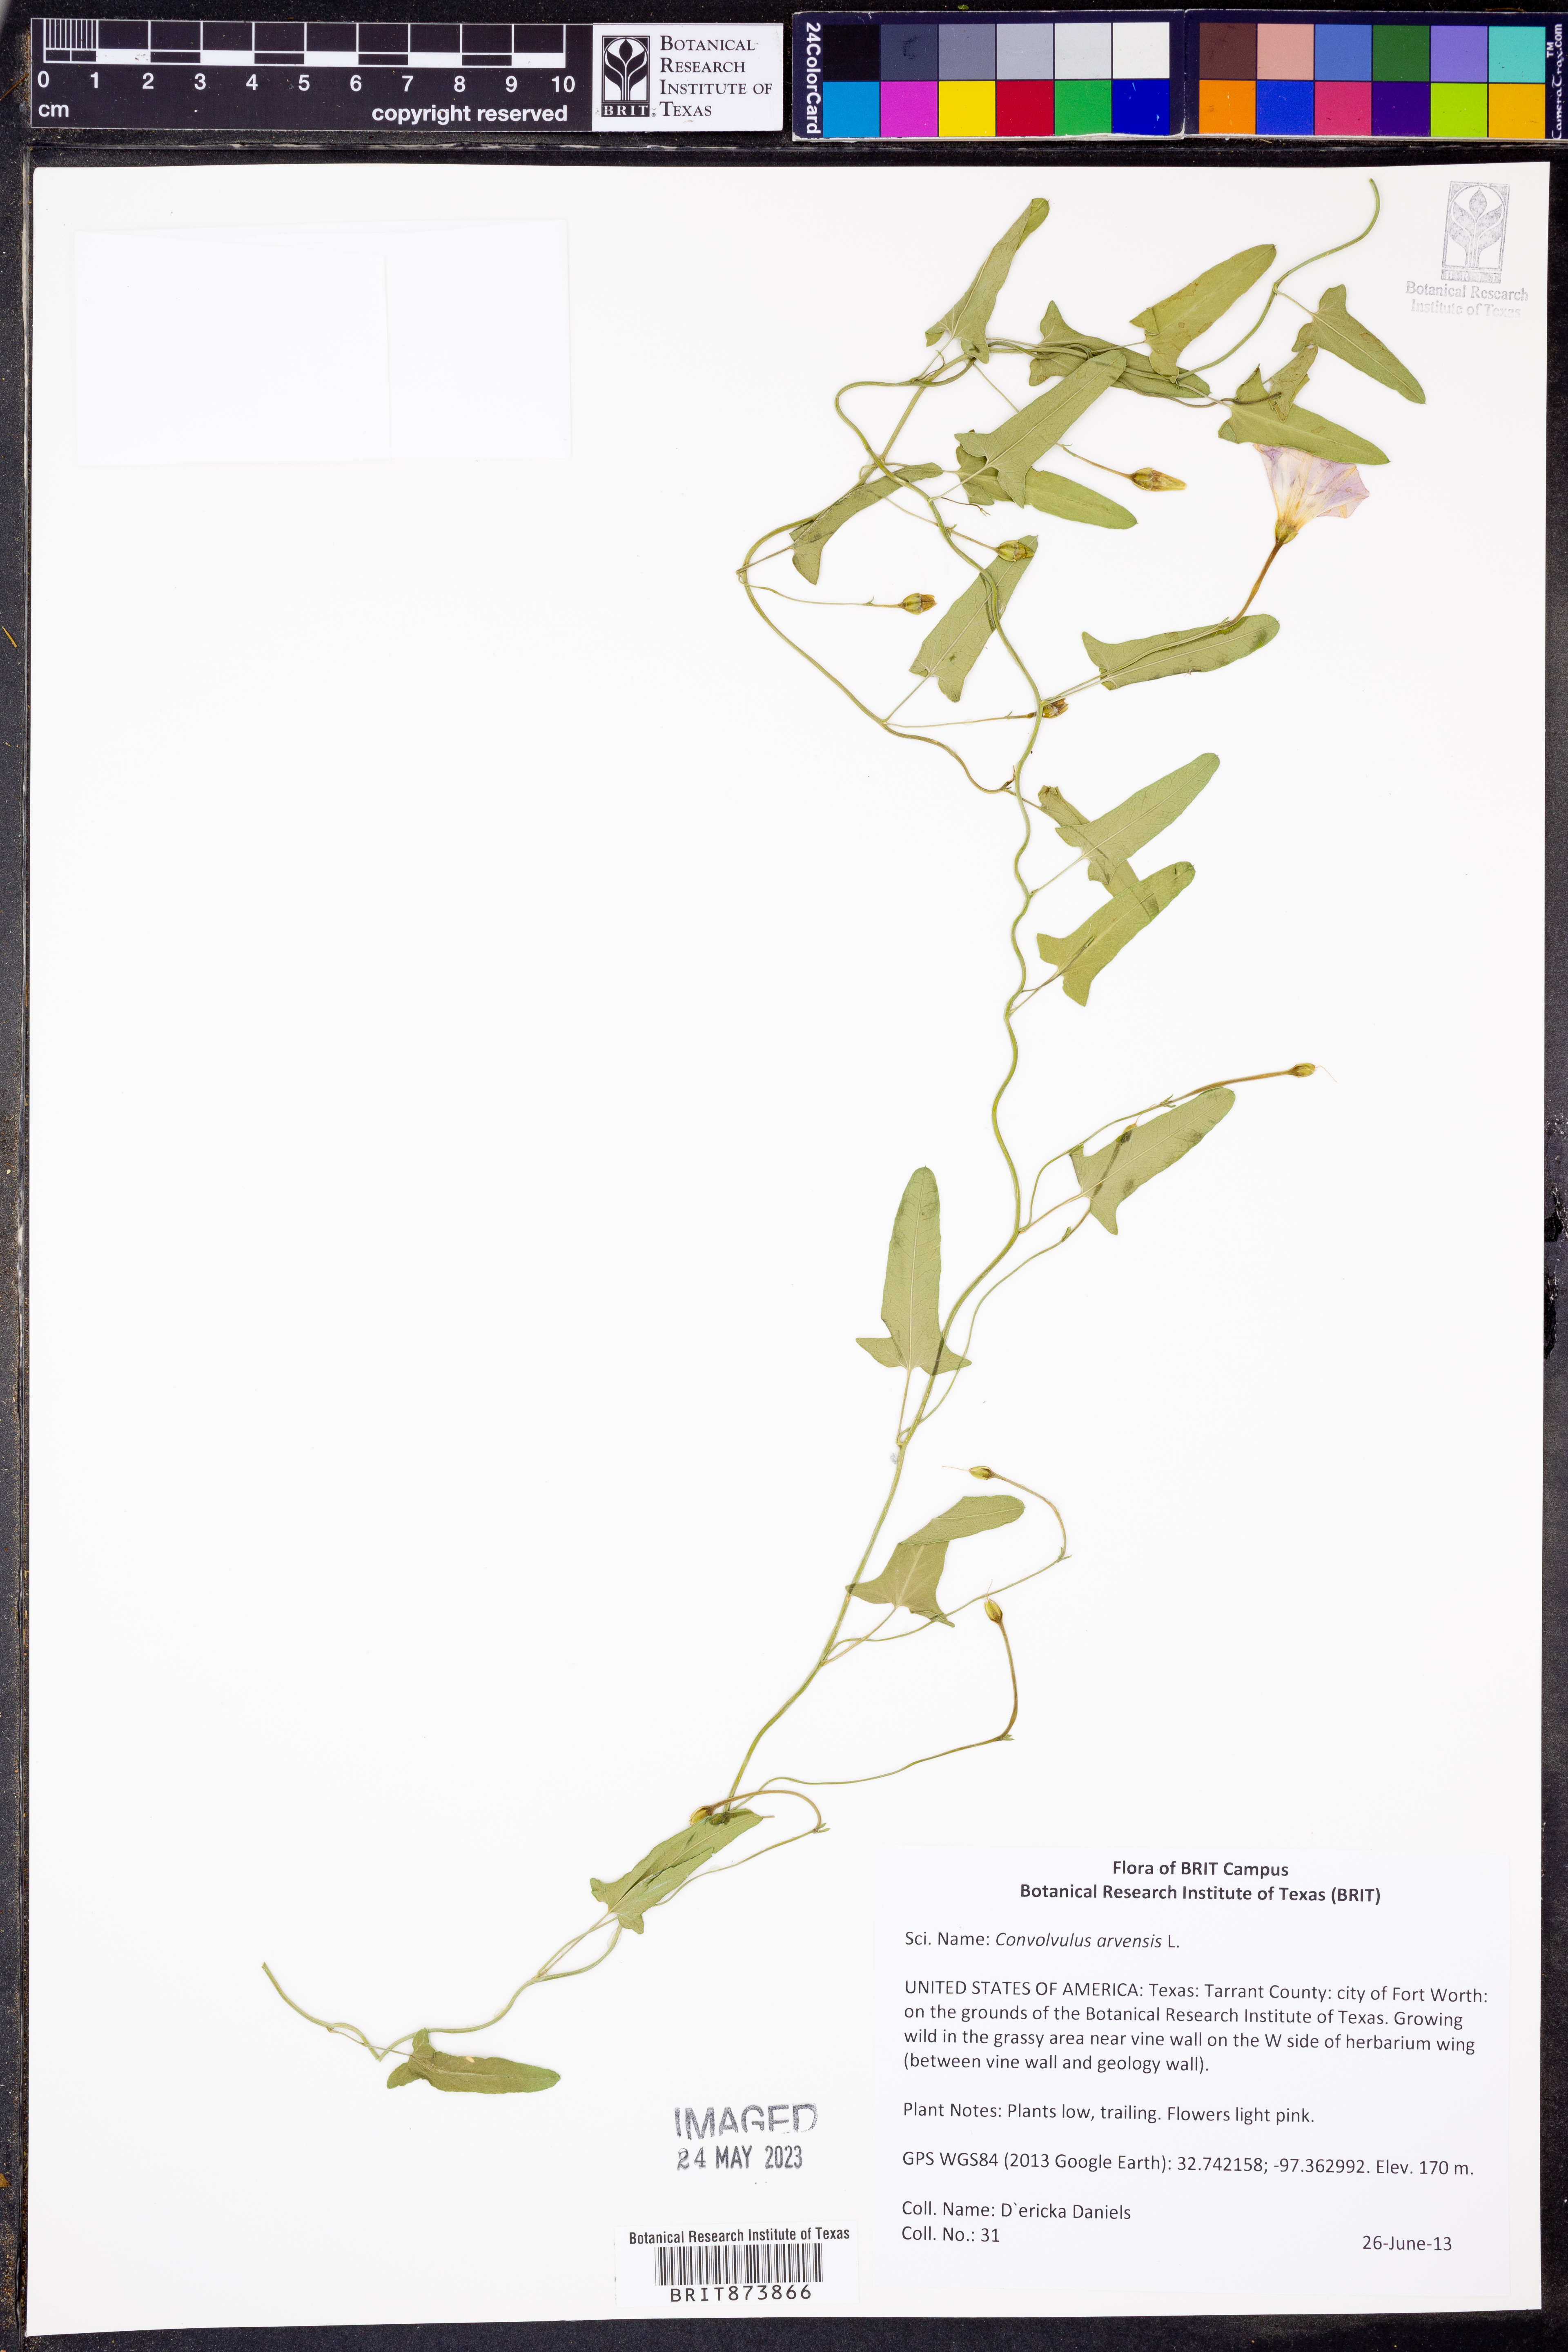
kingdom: Plantae
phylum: Tracheophyta
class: Magnoliopsida
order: Solanales
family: Convolvulaceae
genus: Convolvulus
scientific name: Convolvulus arvensis
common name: Field bindweed
